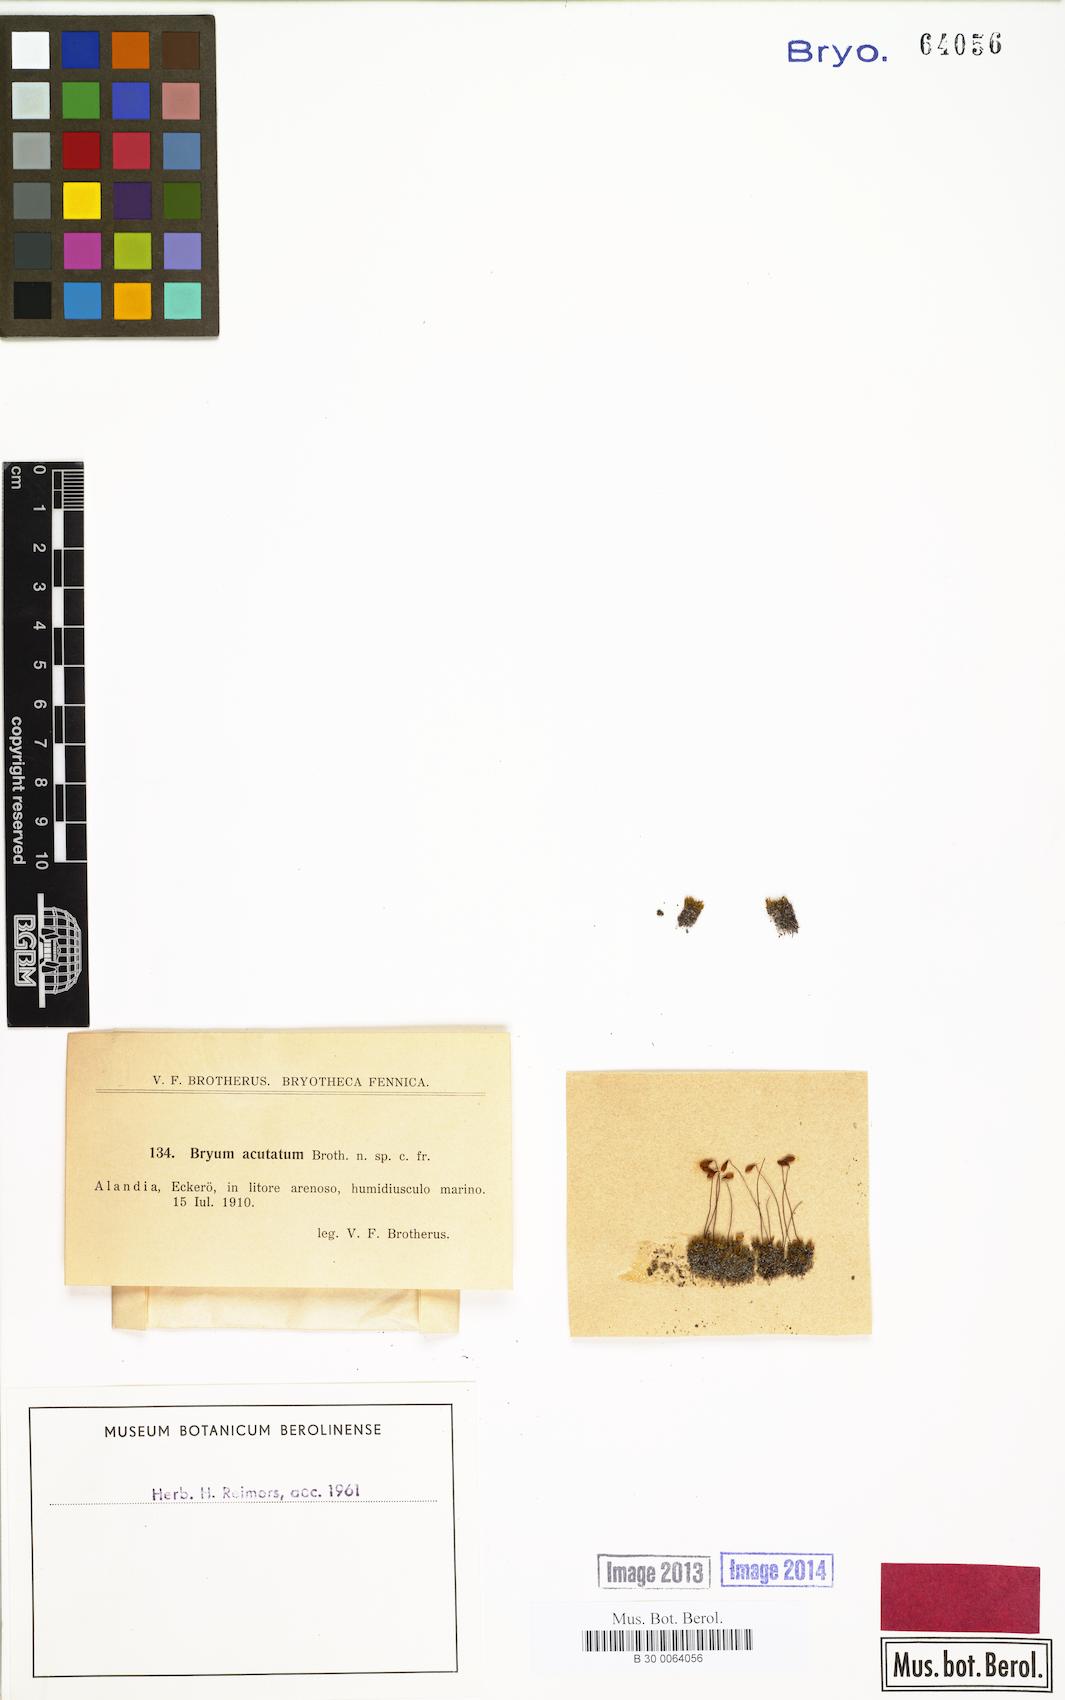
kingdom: Plantae
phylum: Bryophyta
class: Bryopsida
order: Bryales
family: Bryaceae
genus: Ptychostomum
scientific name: Ptychostomum
